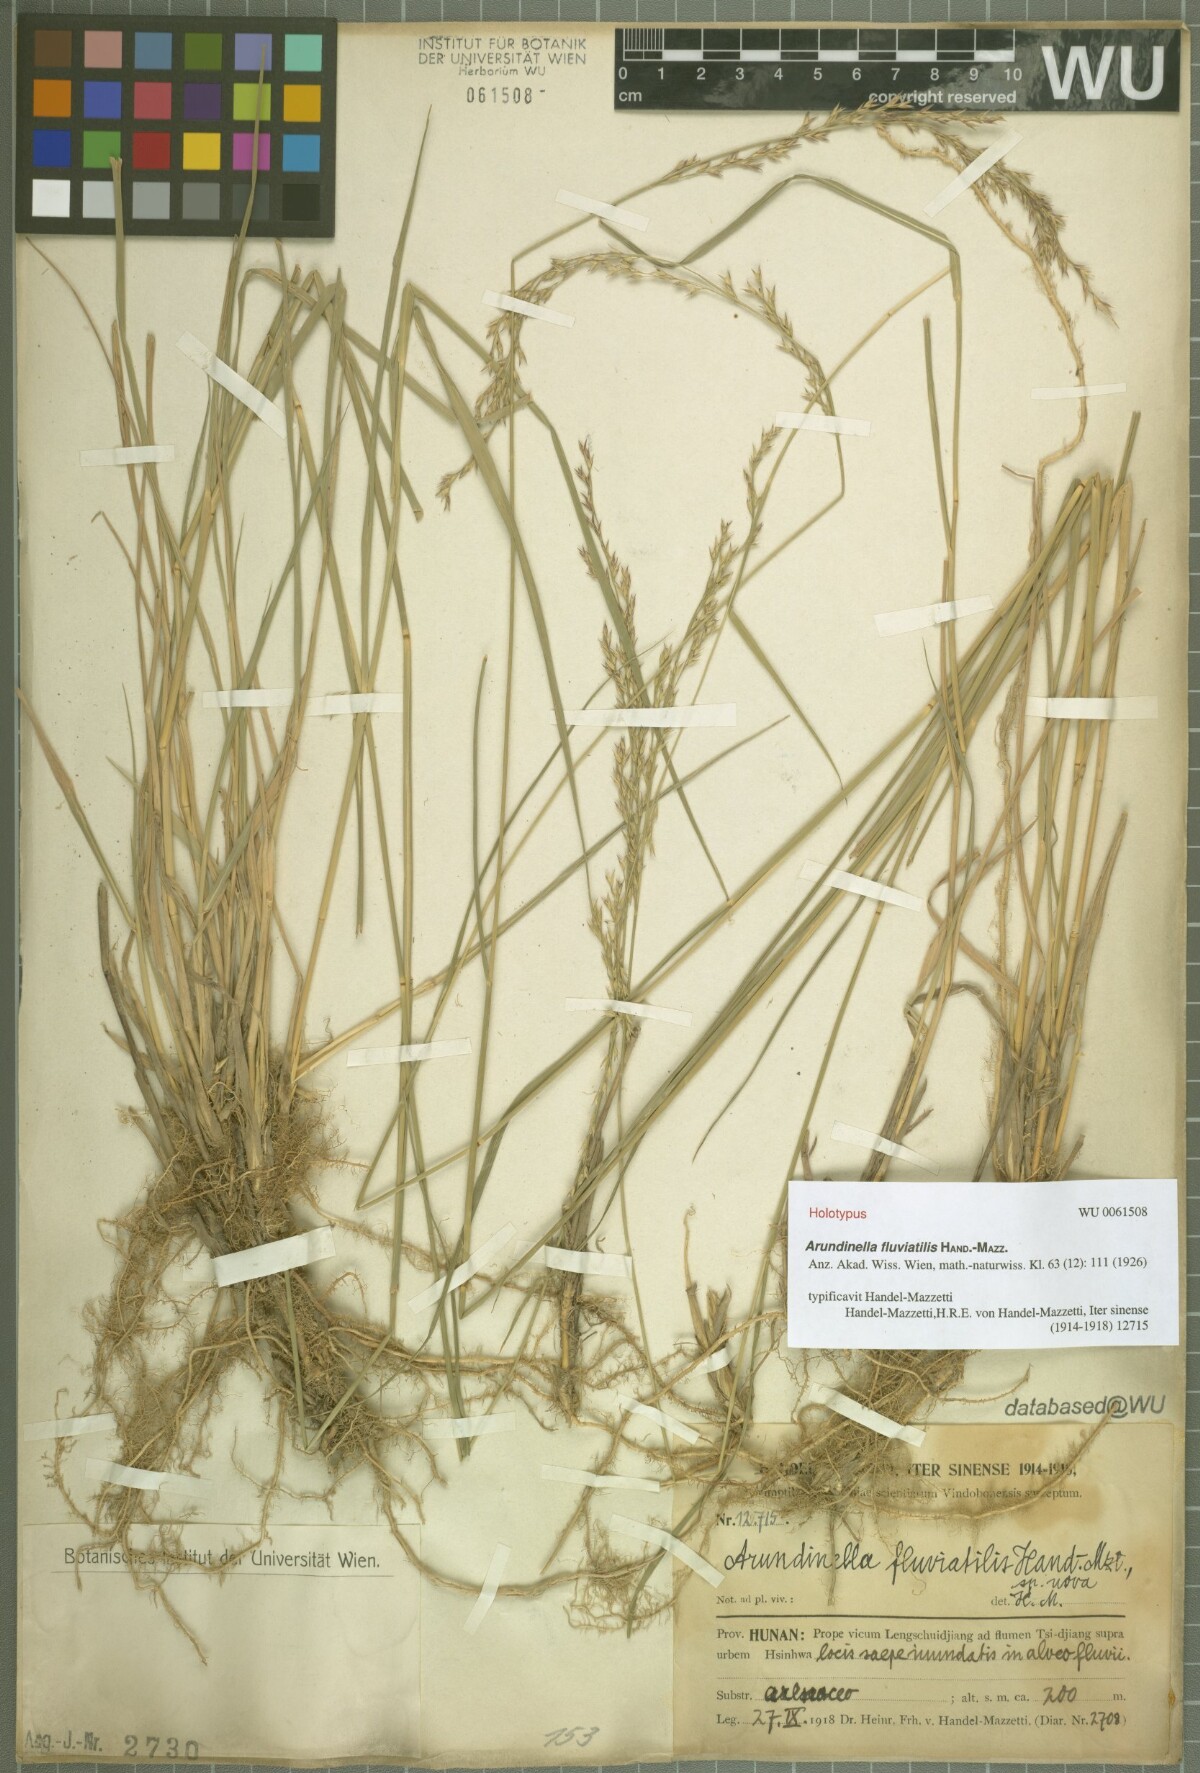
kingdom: Plantae
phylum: Tracheophyta
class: Liliopsida
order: Poales
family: Poaceae
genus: Arundinella
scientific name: Arundinella fluviatilis
